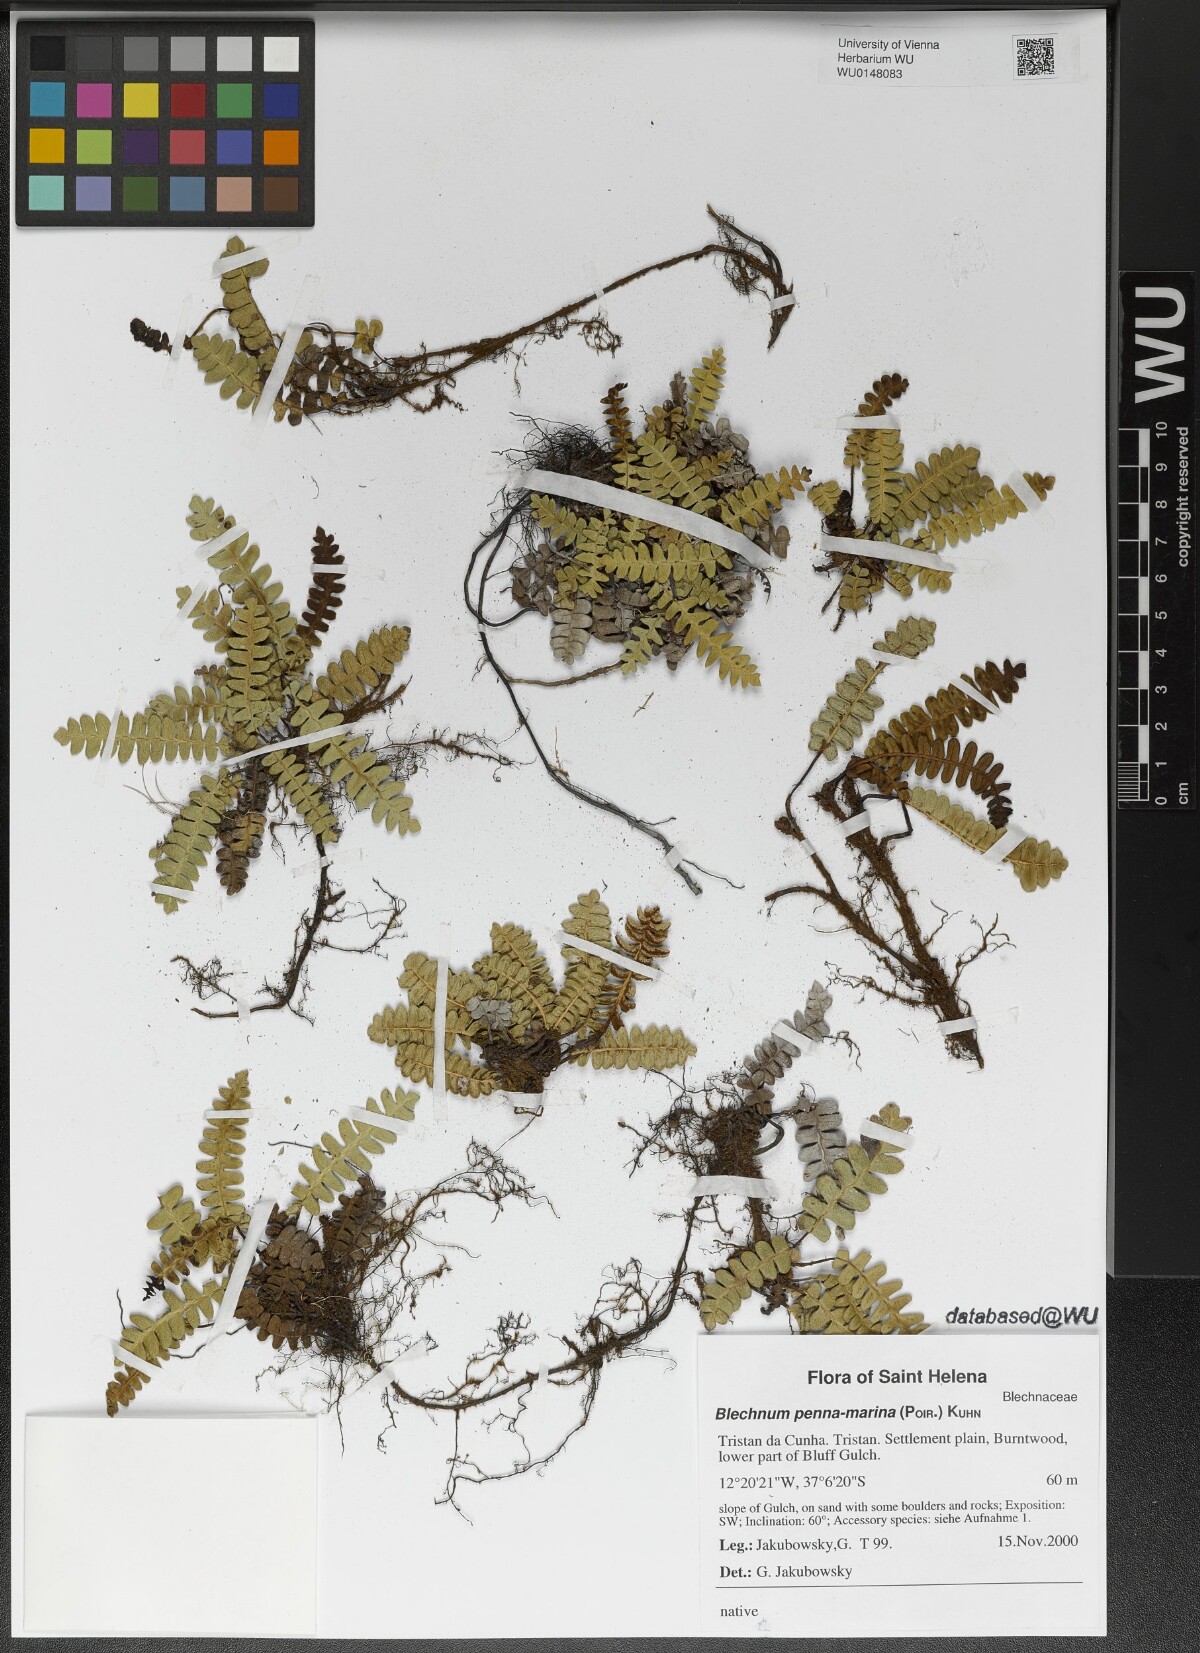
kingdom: Plantae
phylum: Tracheophyta
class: Polypodiopsida
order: Polypodiales
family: Blechnaceae
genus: Austroblechnum
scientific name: Austroblechnum penna-marina
